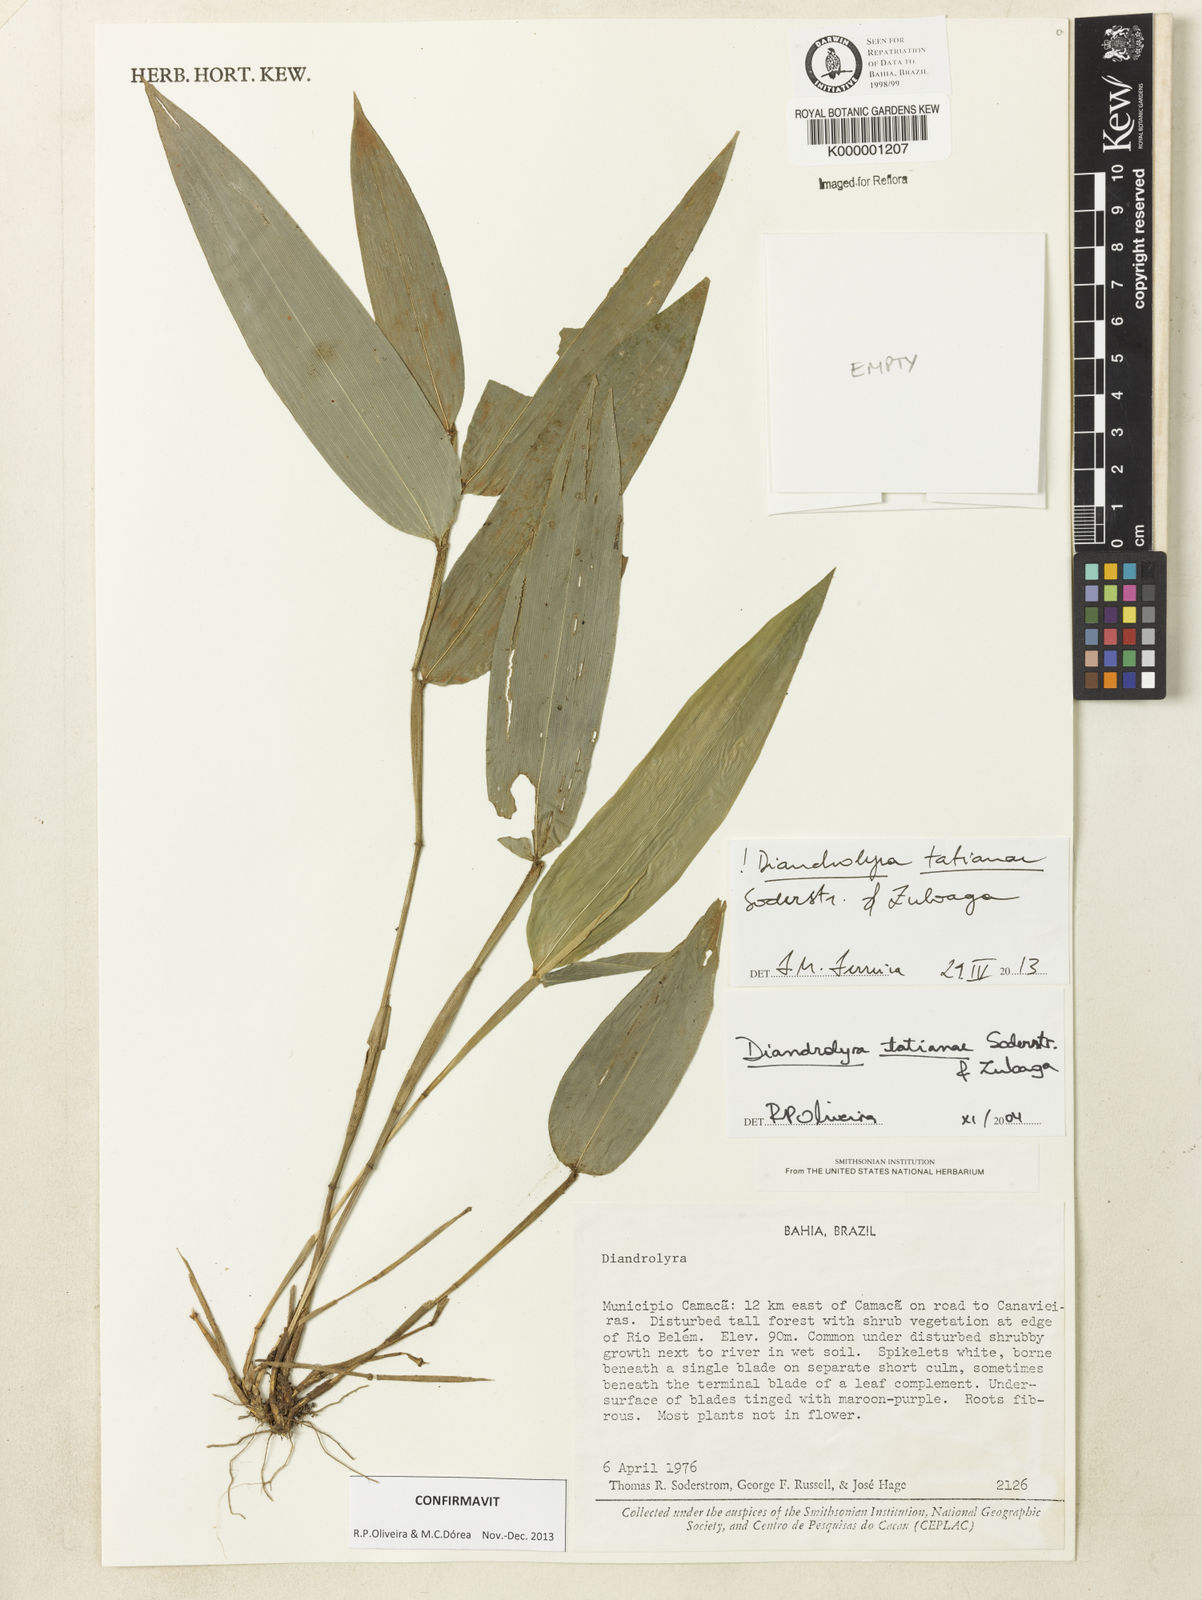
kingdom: Plantae
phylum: Tracheophyta
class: Liliopsida
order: Poales
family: Poaceae
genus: Diandrolyra
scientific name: Diandrolyra
